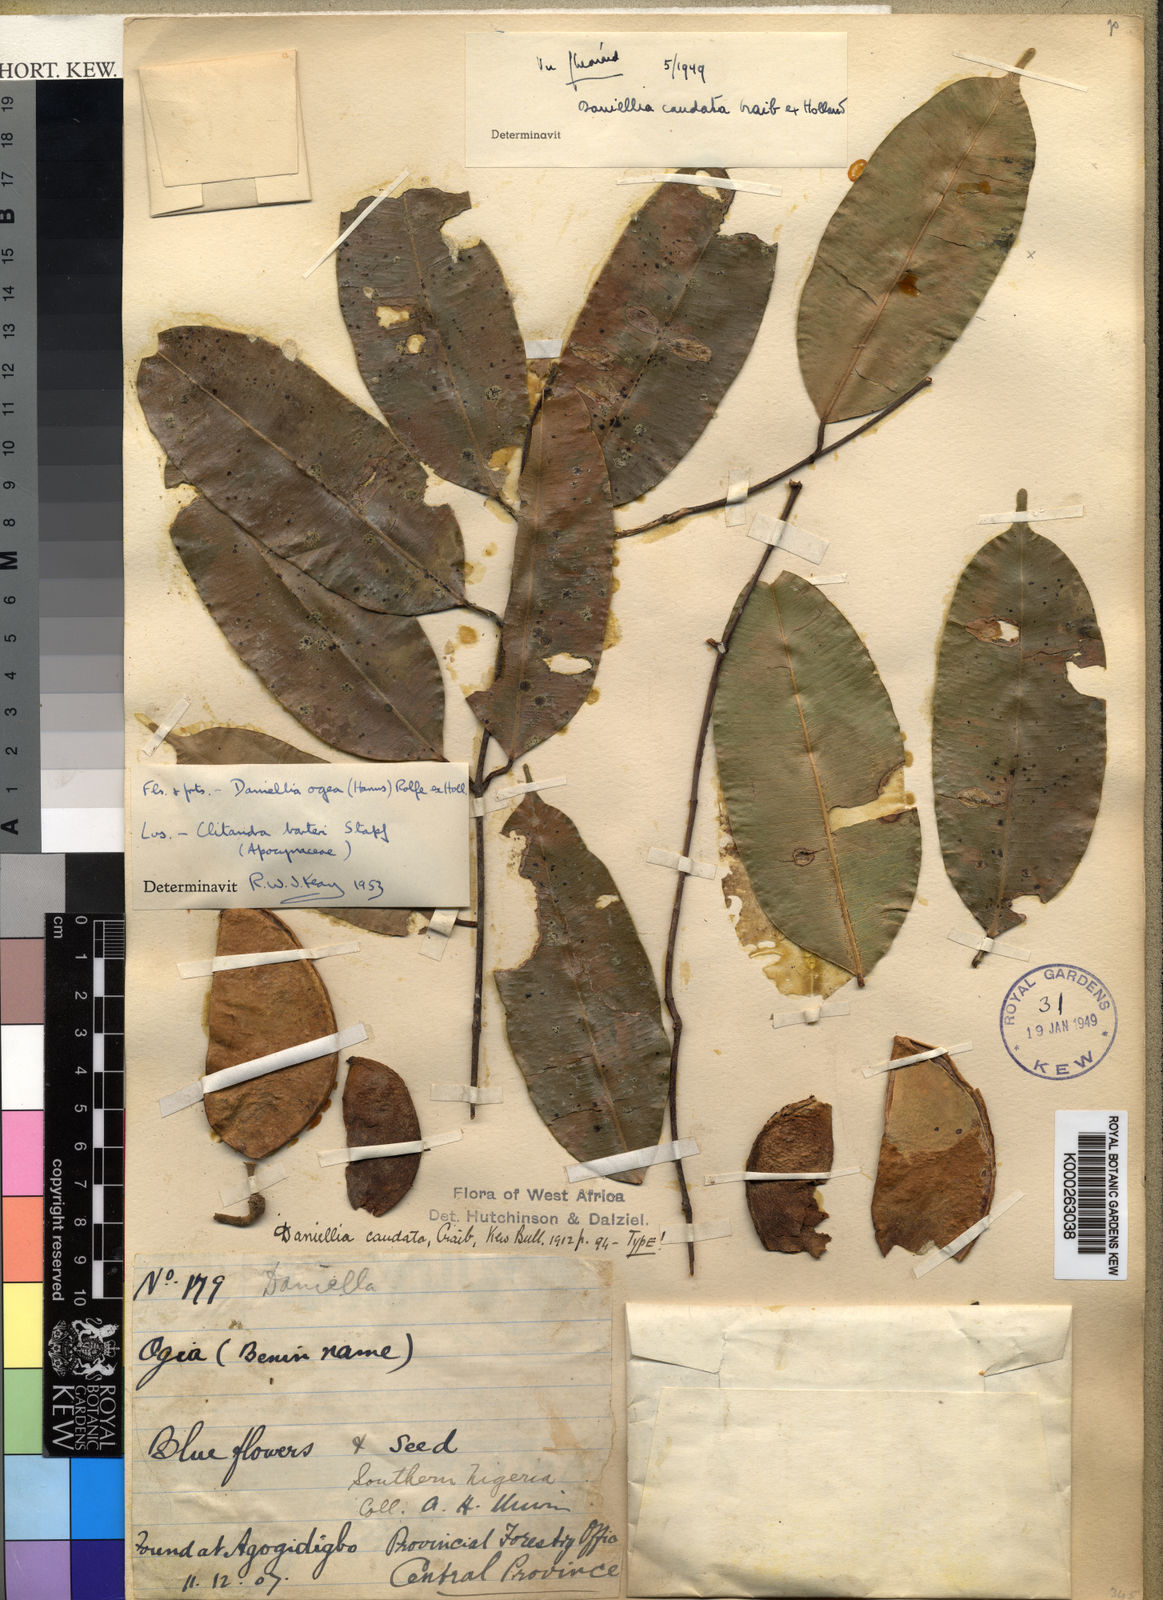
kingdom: Plantae
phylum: Tracheophyta
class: Magnoliopsida
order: Fabales
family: Fabaceae
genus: Daniellia
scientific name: Daniellia ogea
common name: Accra copal
